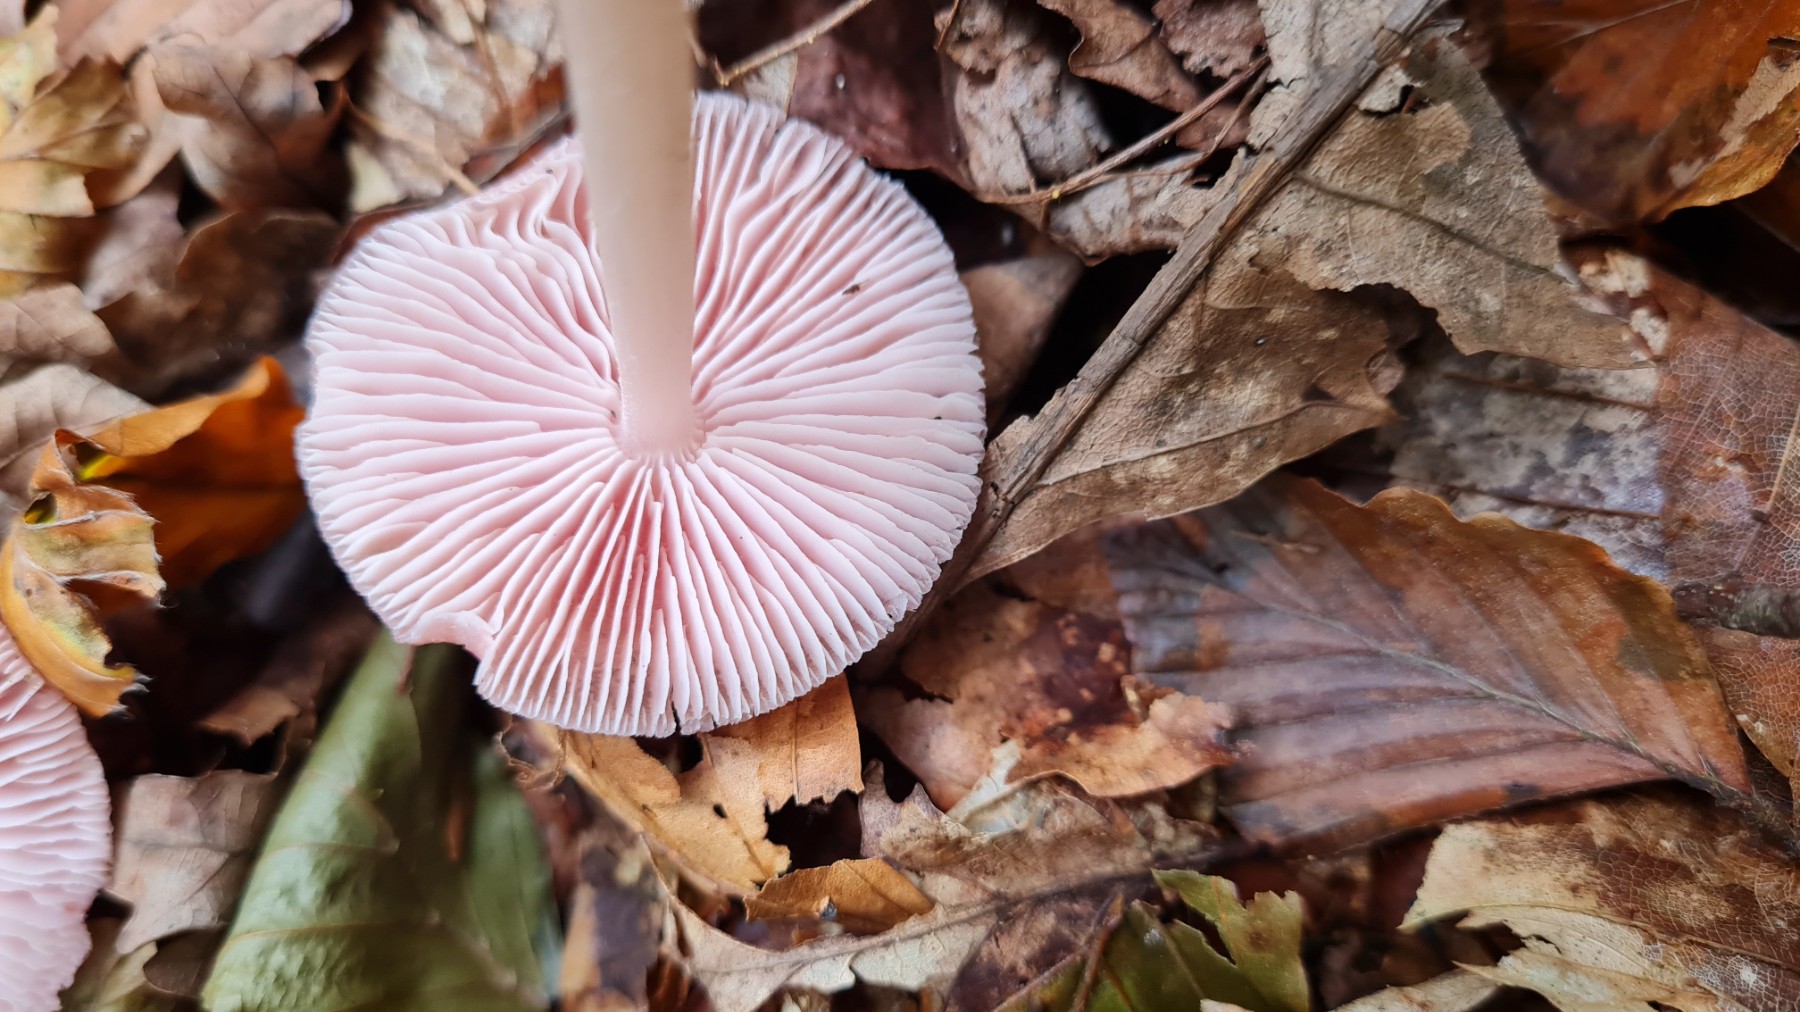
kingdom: Fungi
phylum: Basidiomycota
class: Agaricomycetes
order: Agaricales
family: Mycenaceae
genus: Mycena
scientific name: Mycena rosea
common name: rosa huesvamp
